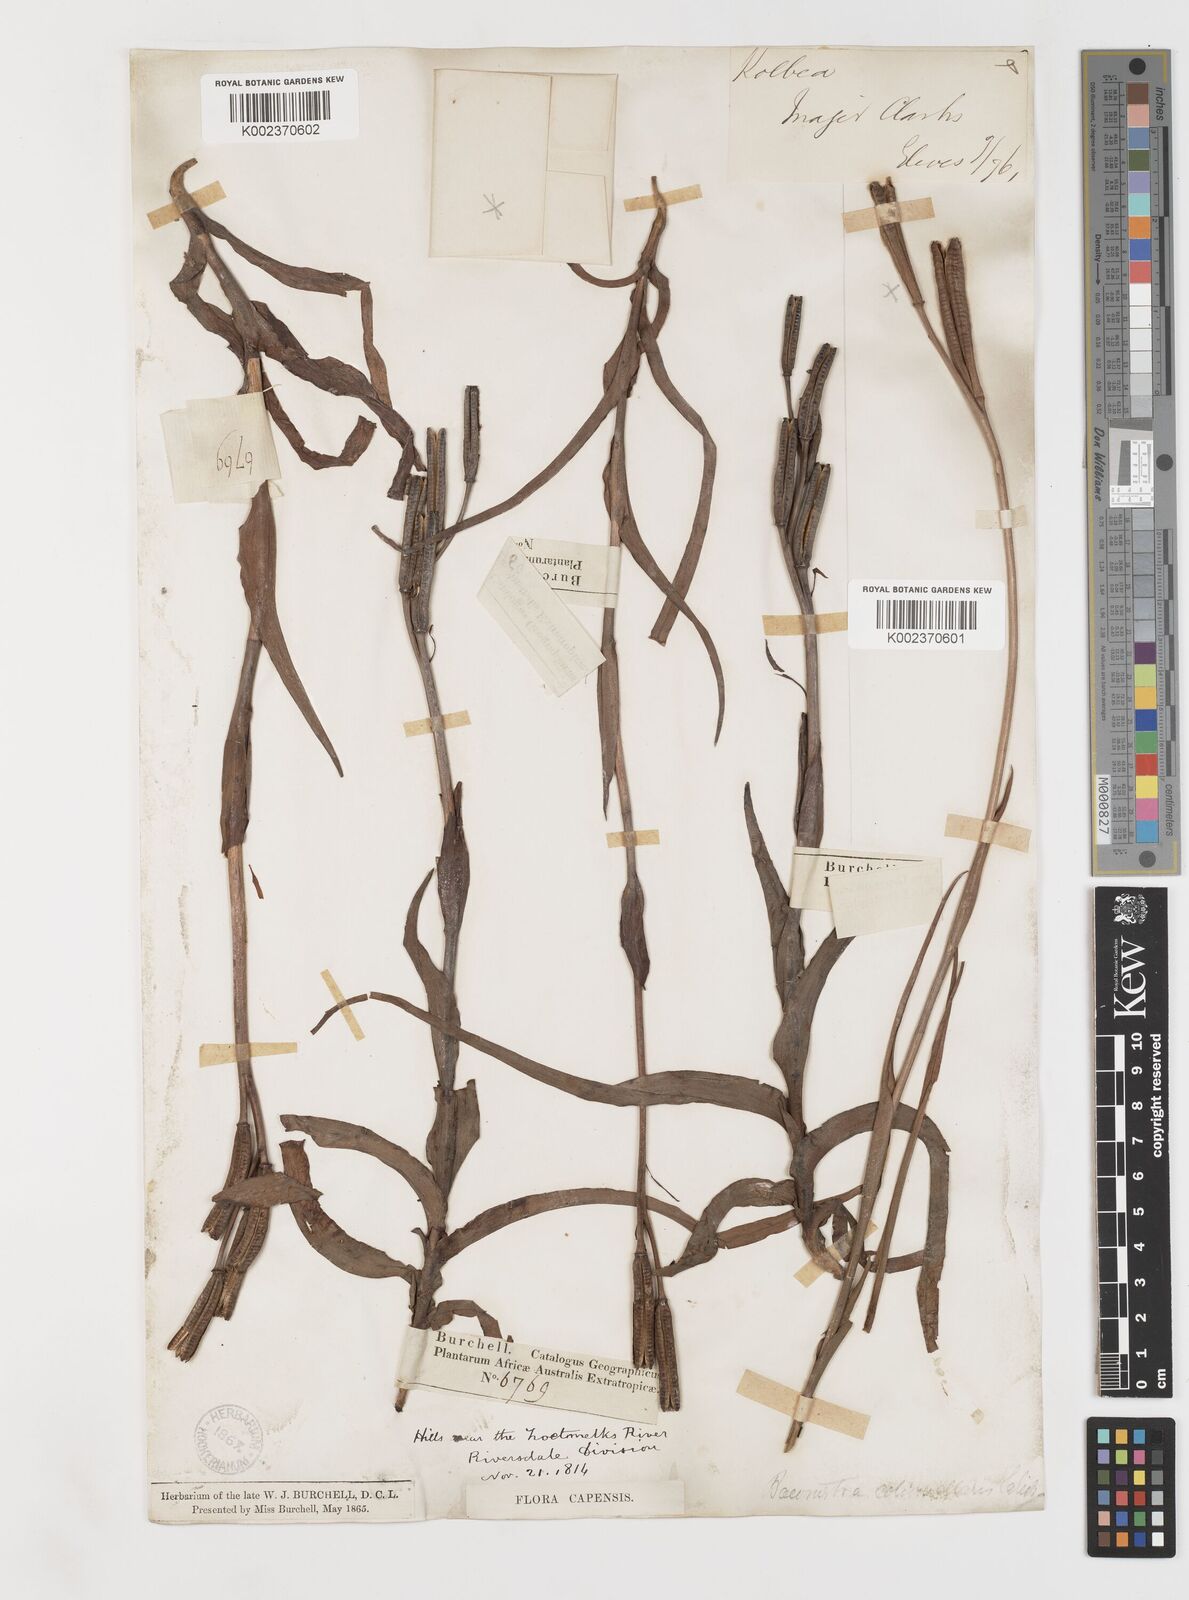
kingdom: Plantae
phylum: Tracheophyta
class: Liliopsida
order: Liliales
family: Colchicaceae
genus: Baeometra
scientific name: Baeometra uniflora
